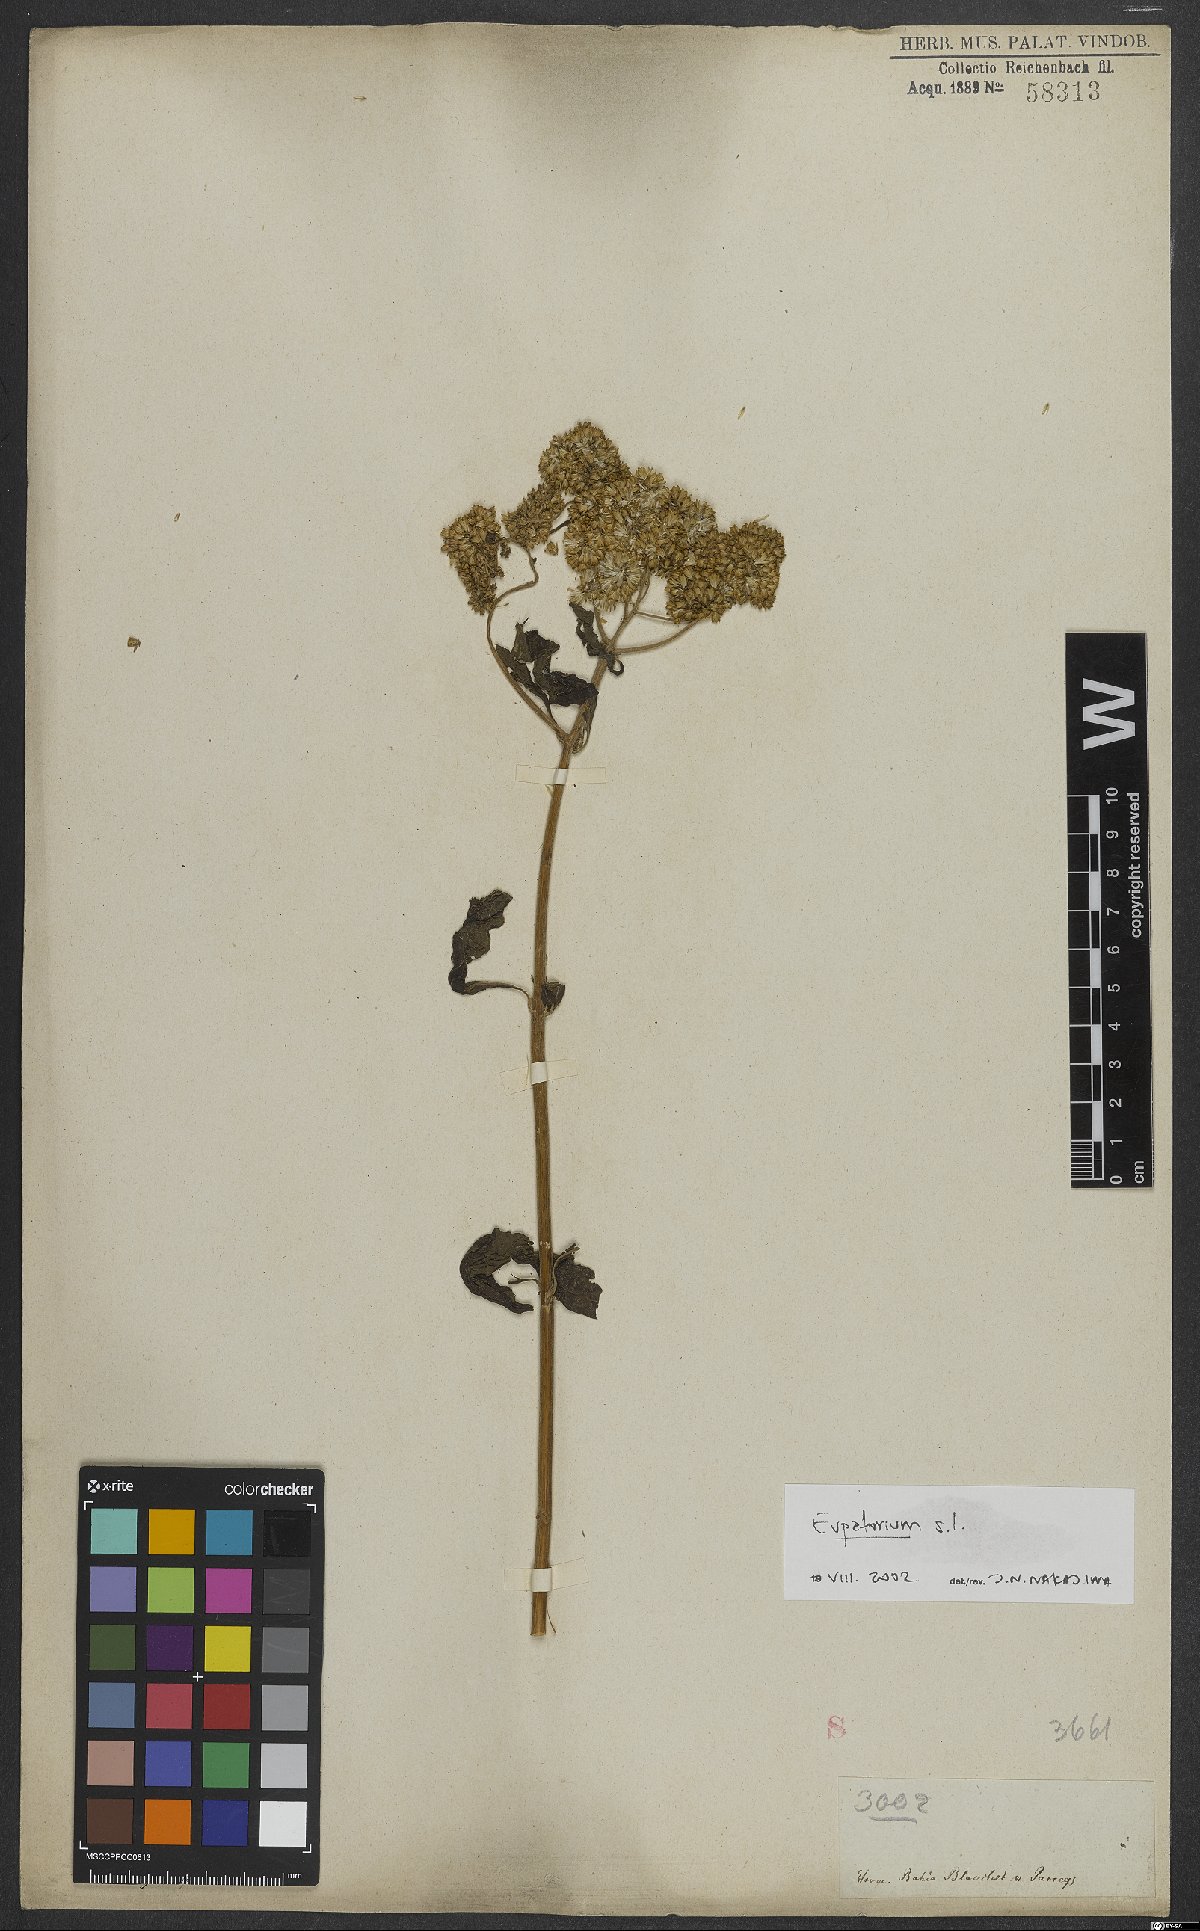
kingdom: Plantae
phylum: Tracheophyta
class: Magnoliopsida
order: Asterales
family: Asteraceae
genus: Eupatorium
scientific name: Eupatorium
